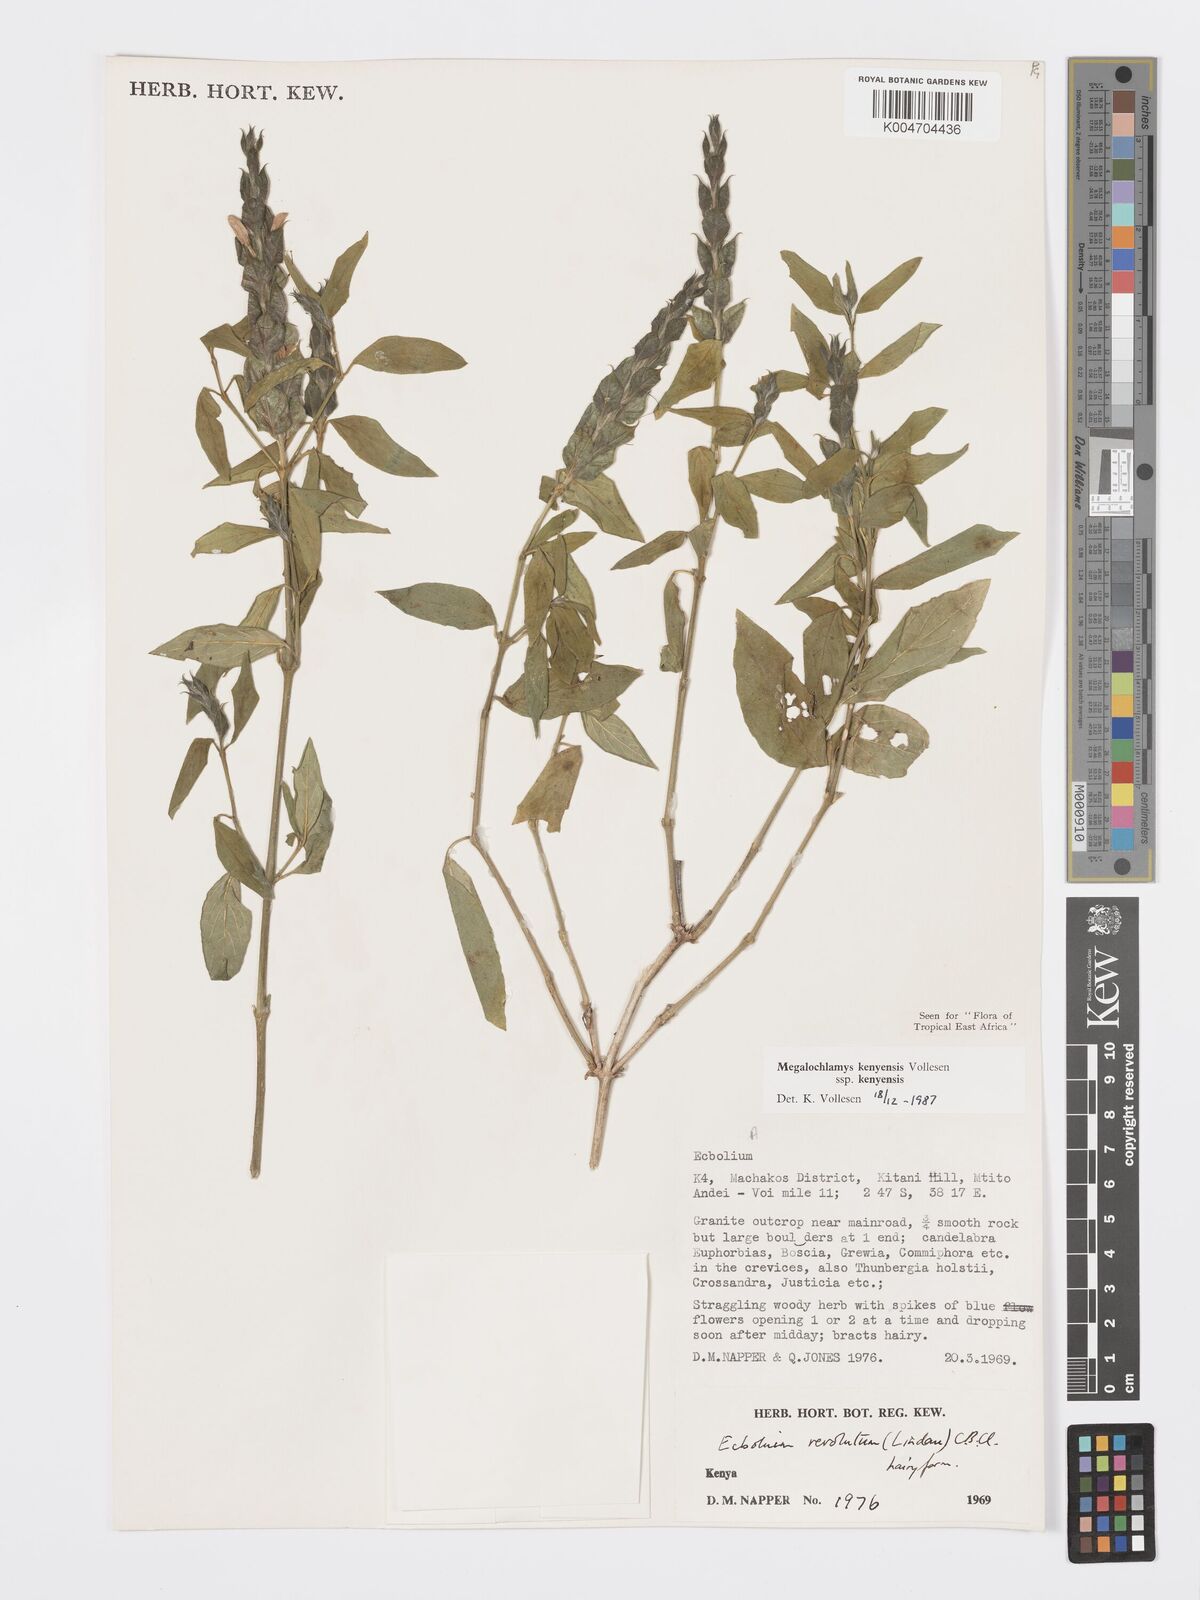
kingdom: Plantae
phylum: Tracheophyta
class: Magnoliopsida
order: Lamiales
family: Acanthaceae
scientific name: Acanthaceae
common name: Acanthaceae
